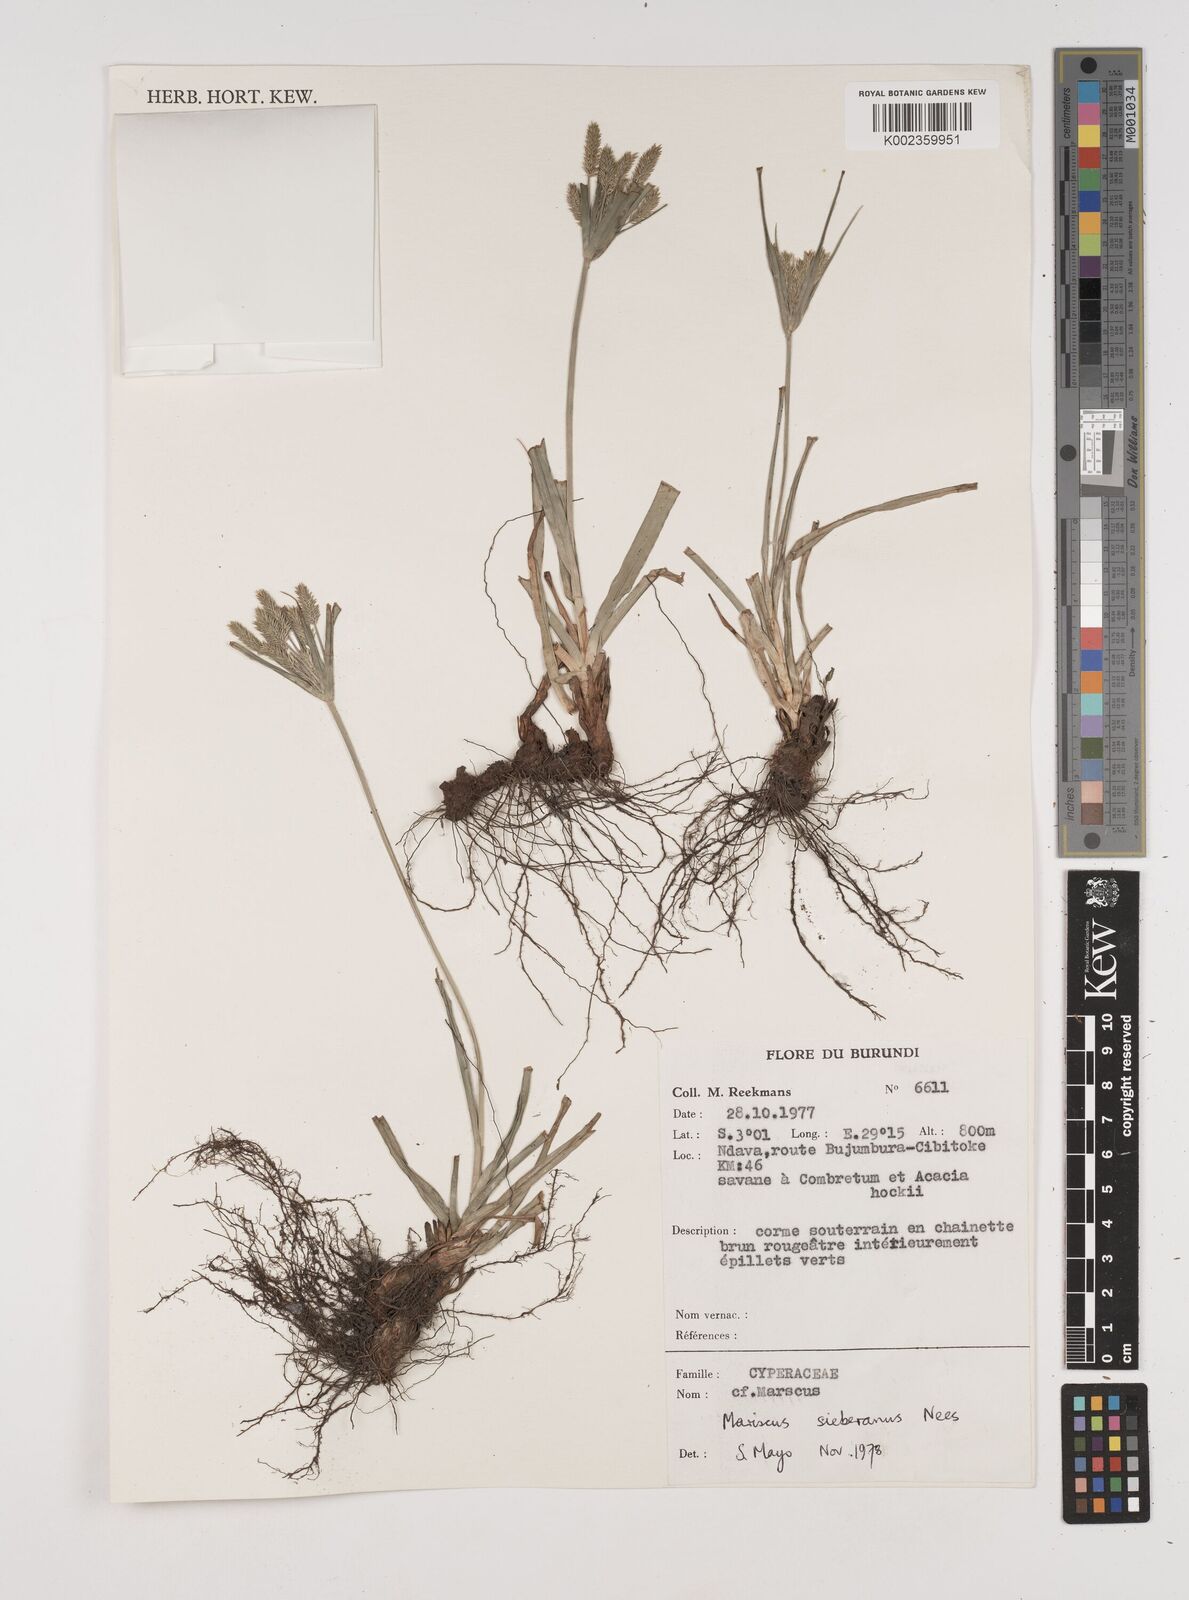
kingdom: Plantae
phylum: Tracheophyta
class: Liliopsida
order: Poales
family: Cyperaceae
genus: Cyperus
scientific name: Cyperus cyperoides
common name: Pacific island flat sedge
